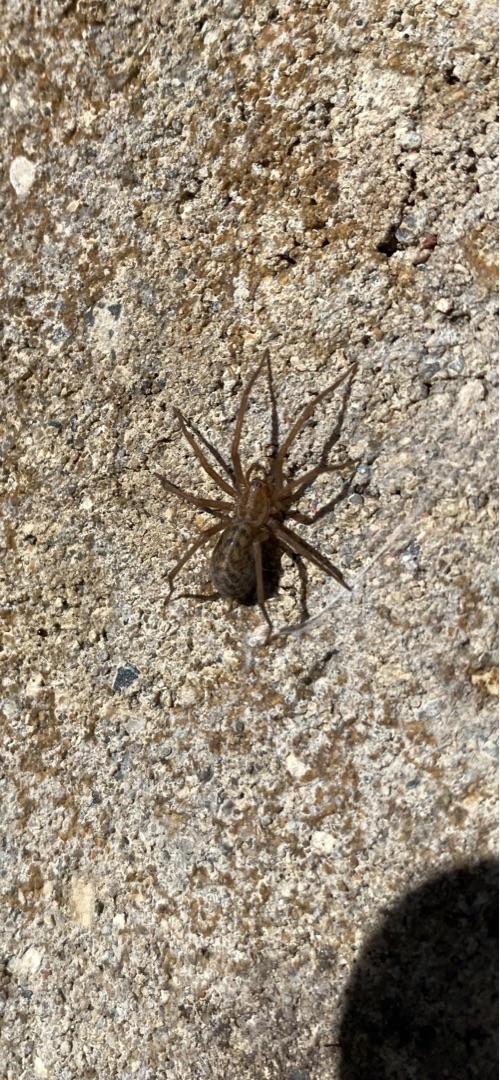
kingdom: Animalia
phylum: Arthropoda
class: Arachnida
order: Araneae
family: Agelenidae
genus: Eratigena
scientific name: Eratigena atrica
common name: Stor husedderkop
